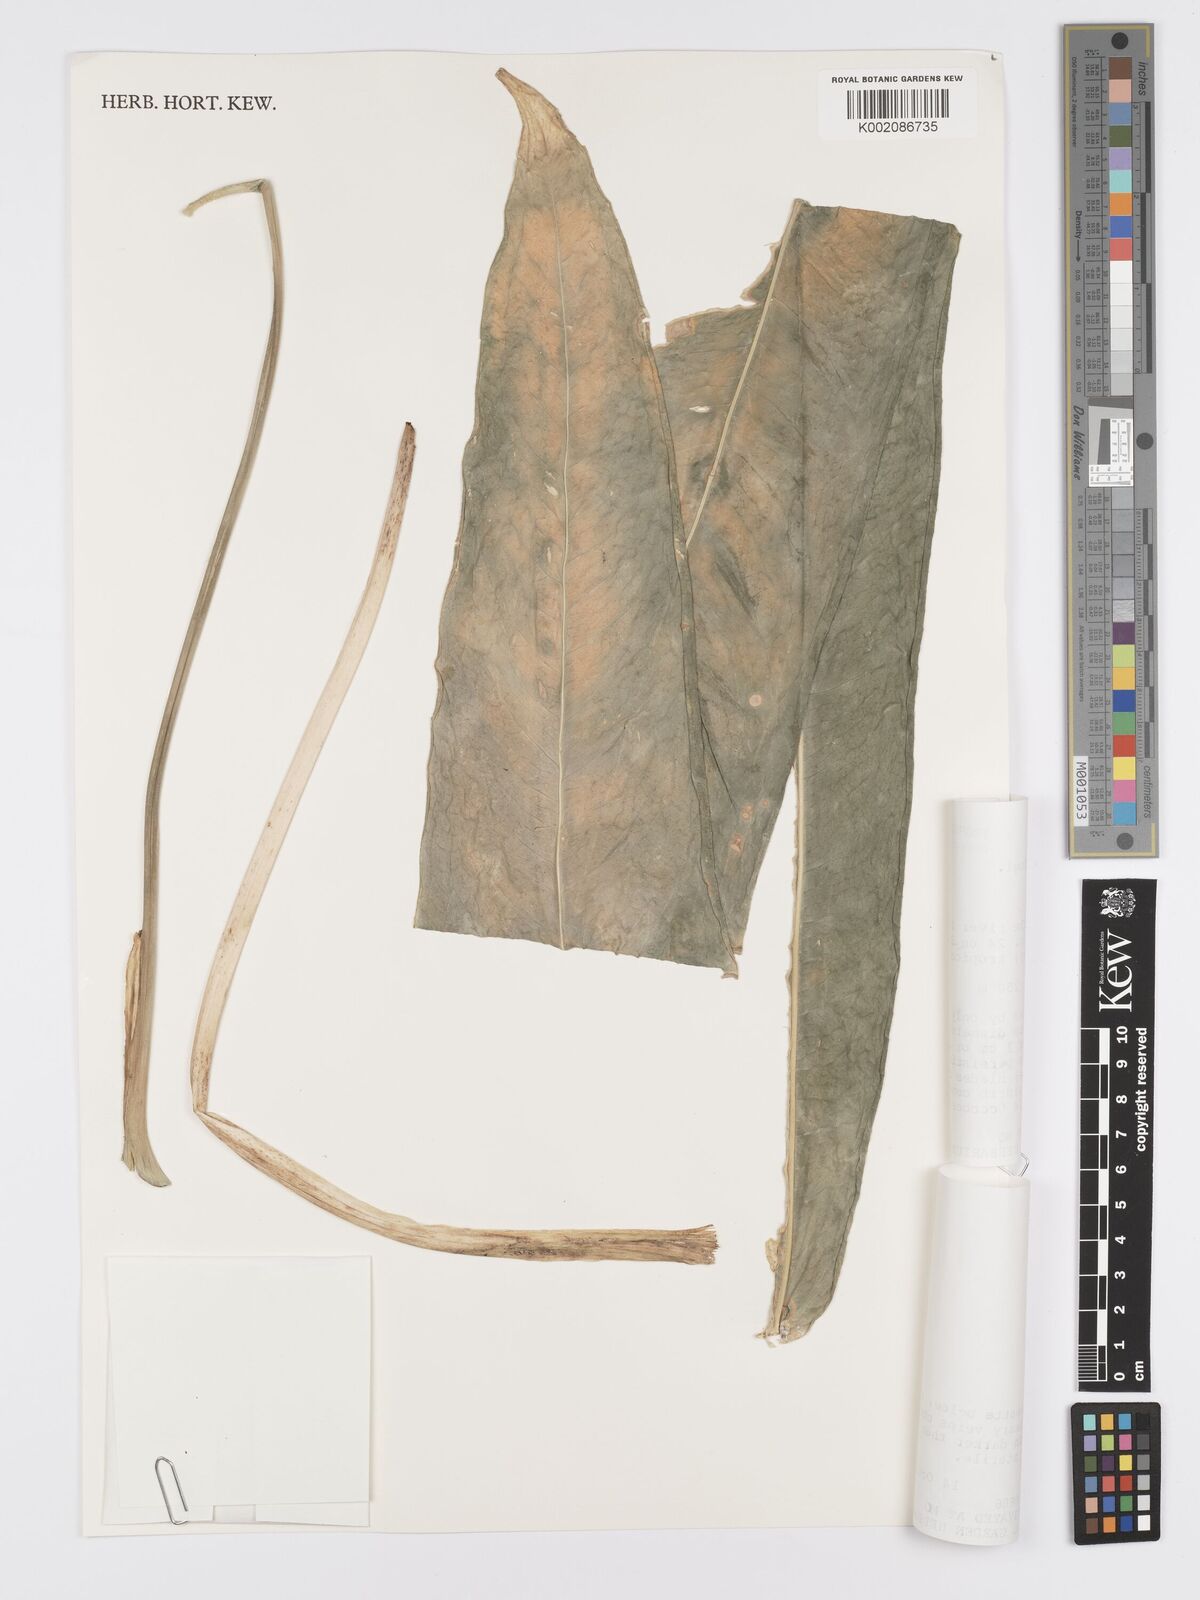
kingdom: Plantae
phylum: Tracheophyta
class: Liliopsida
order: Alismatales
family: Araceae
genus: Anthurium
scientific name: Anthurium pallidiflorum
